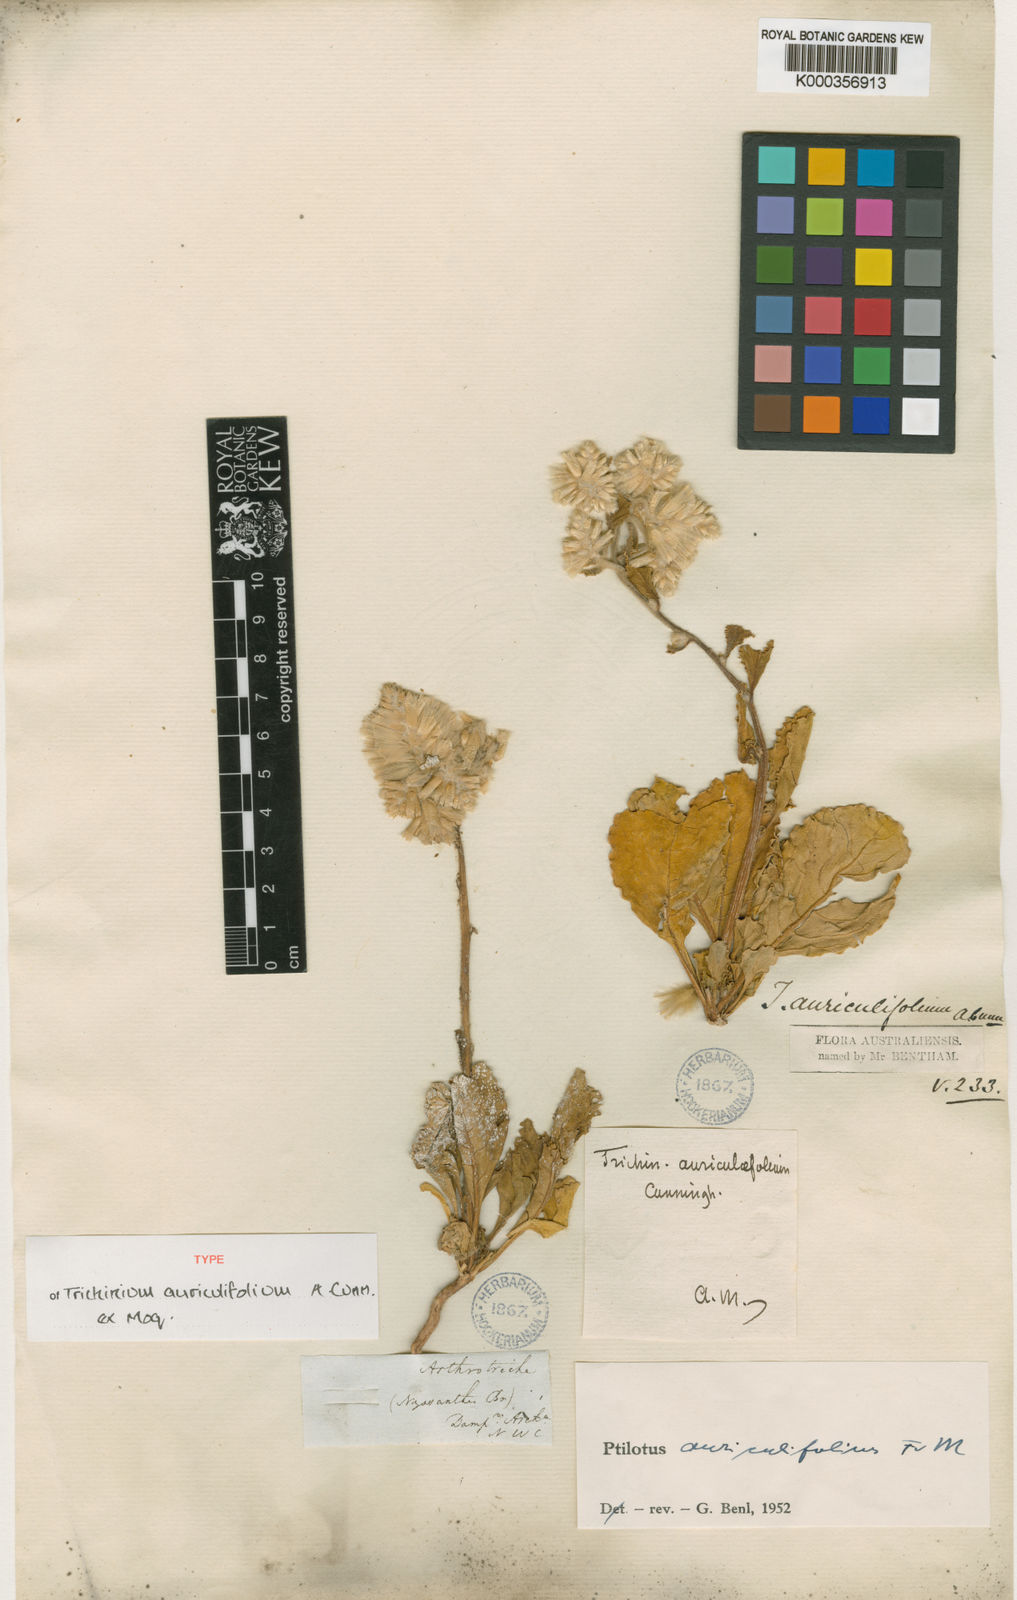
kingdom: Plantae
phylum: Tracheophyta
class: Magnoliopsida
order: Caryophyllales
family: Amaranthaceae
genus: Ptilotus
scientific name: Ptilotus auriculifolius
